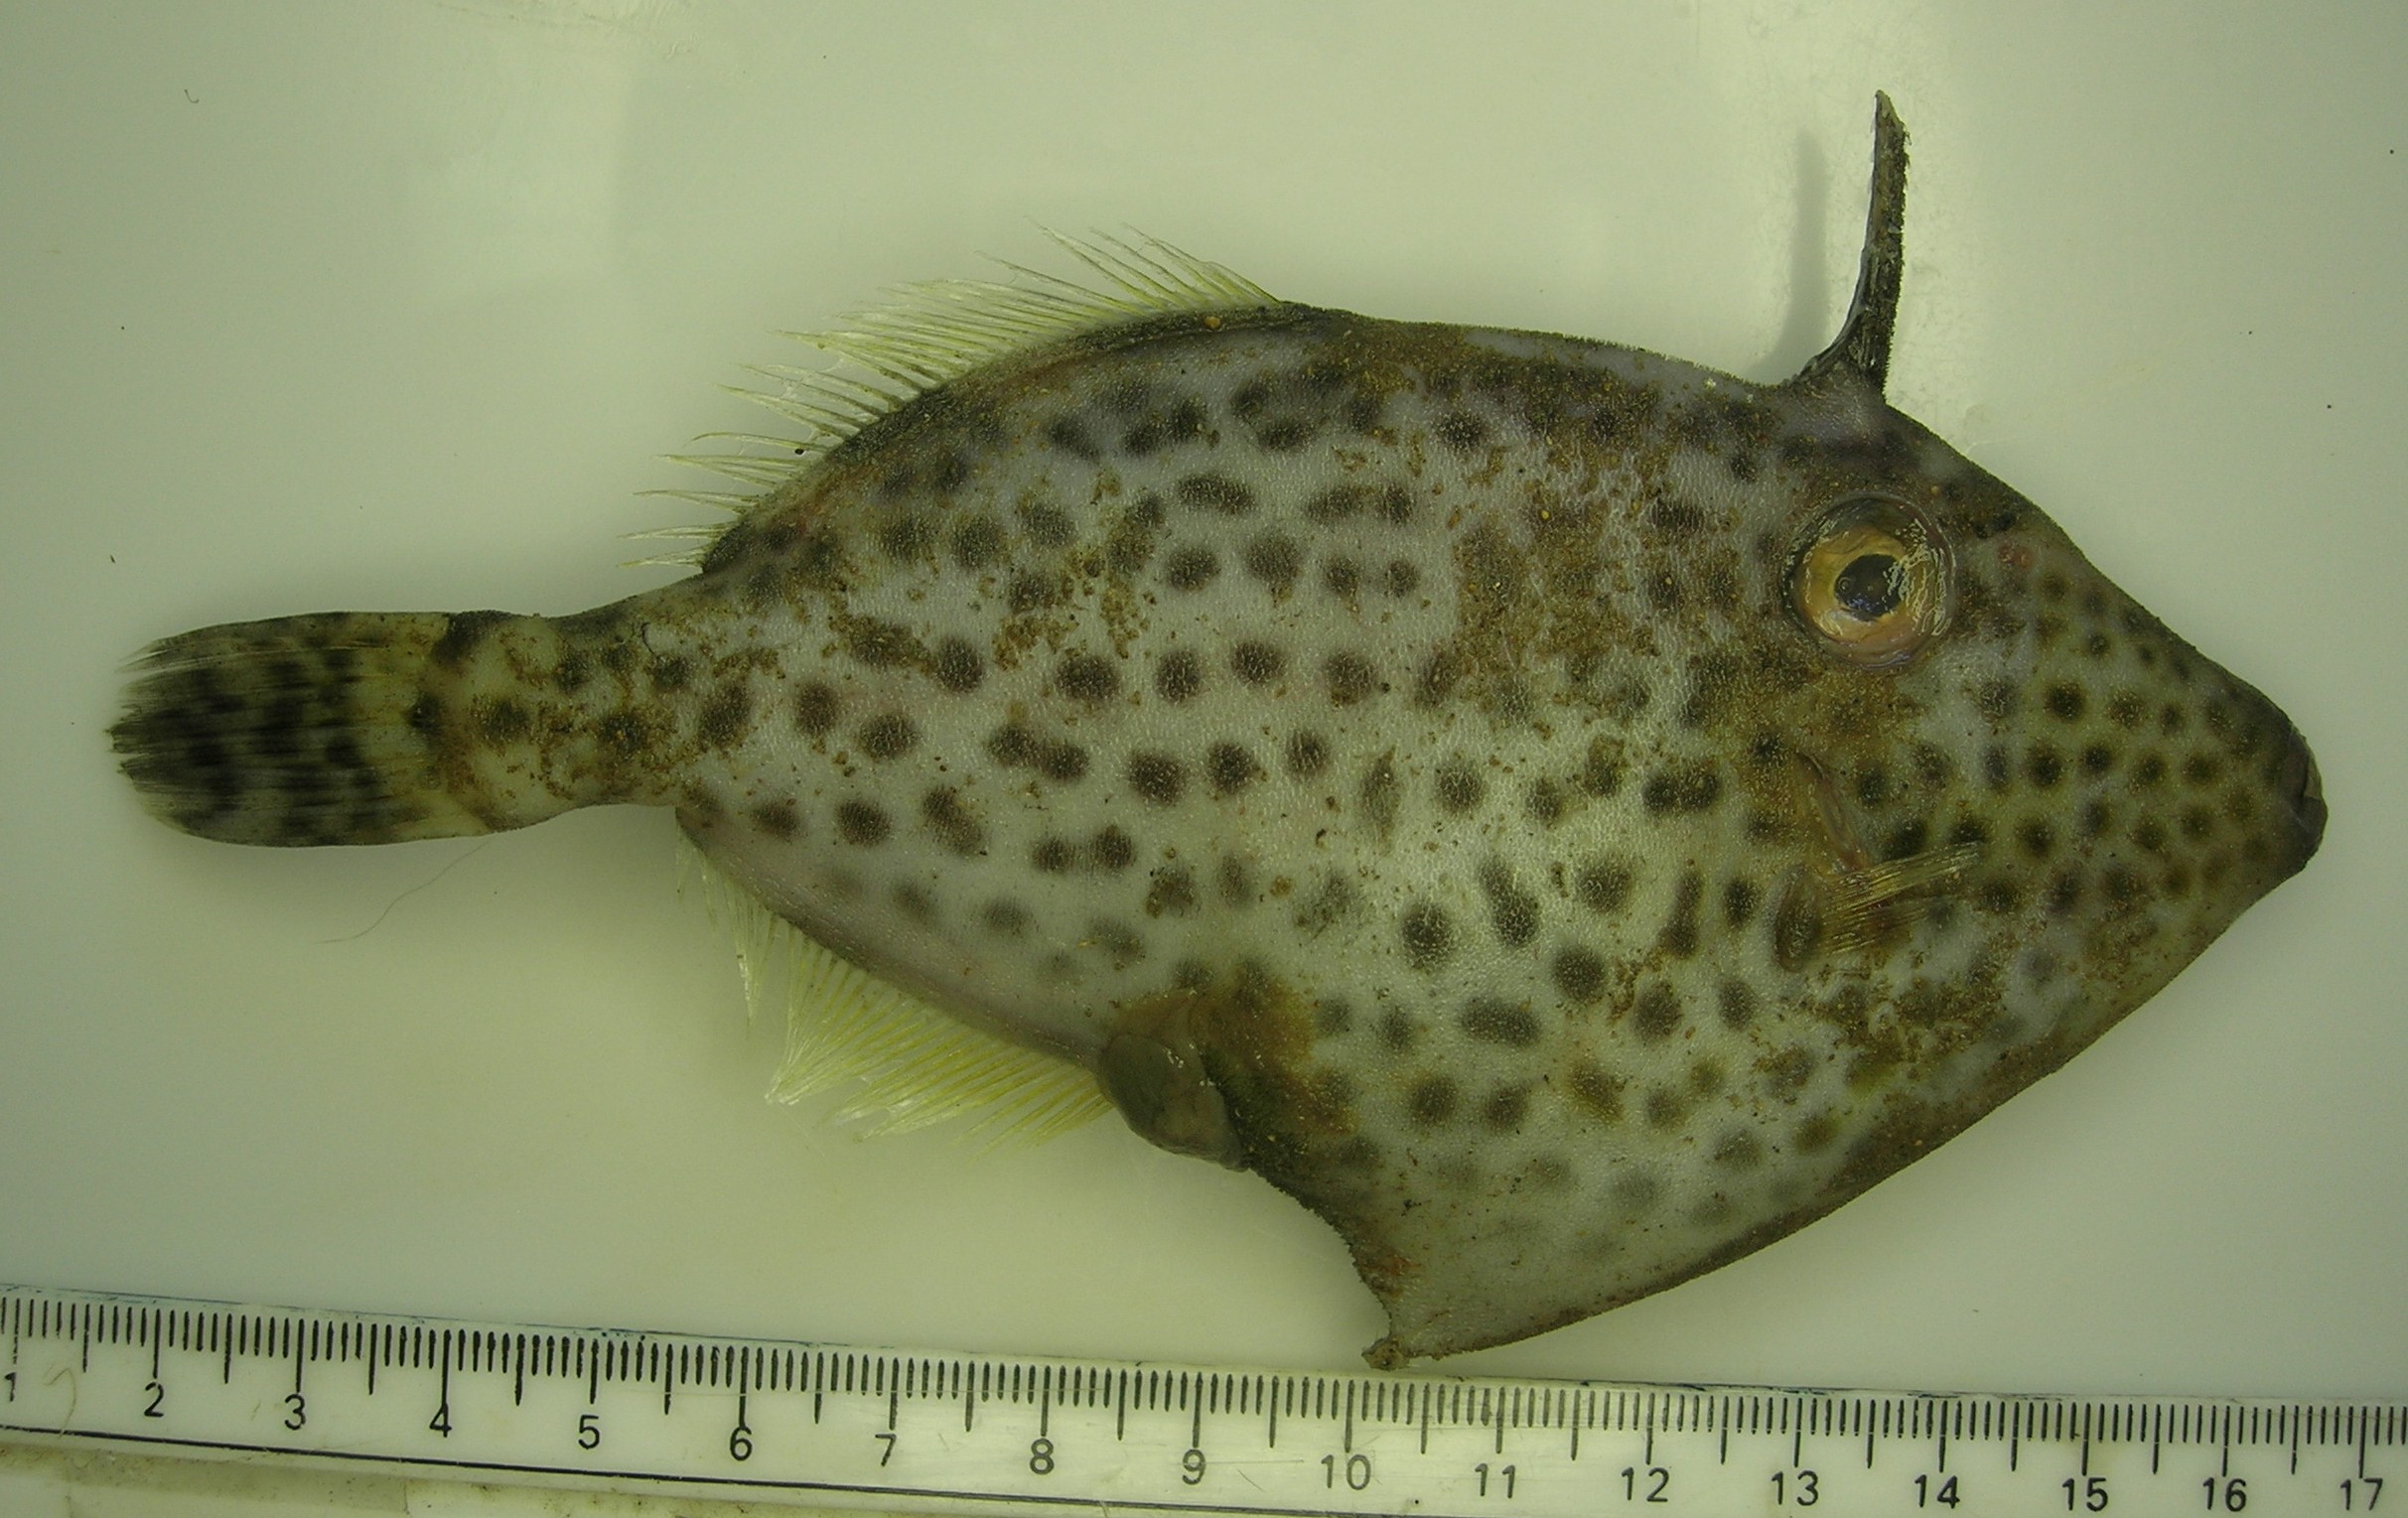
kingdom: Animalia
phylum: Chordata
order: Tetraodontiformes
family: Monacanthidae
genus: Thamnaconus
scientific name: Thamnaconus fajardoi
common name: Spotted filefish
